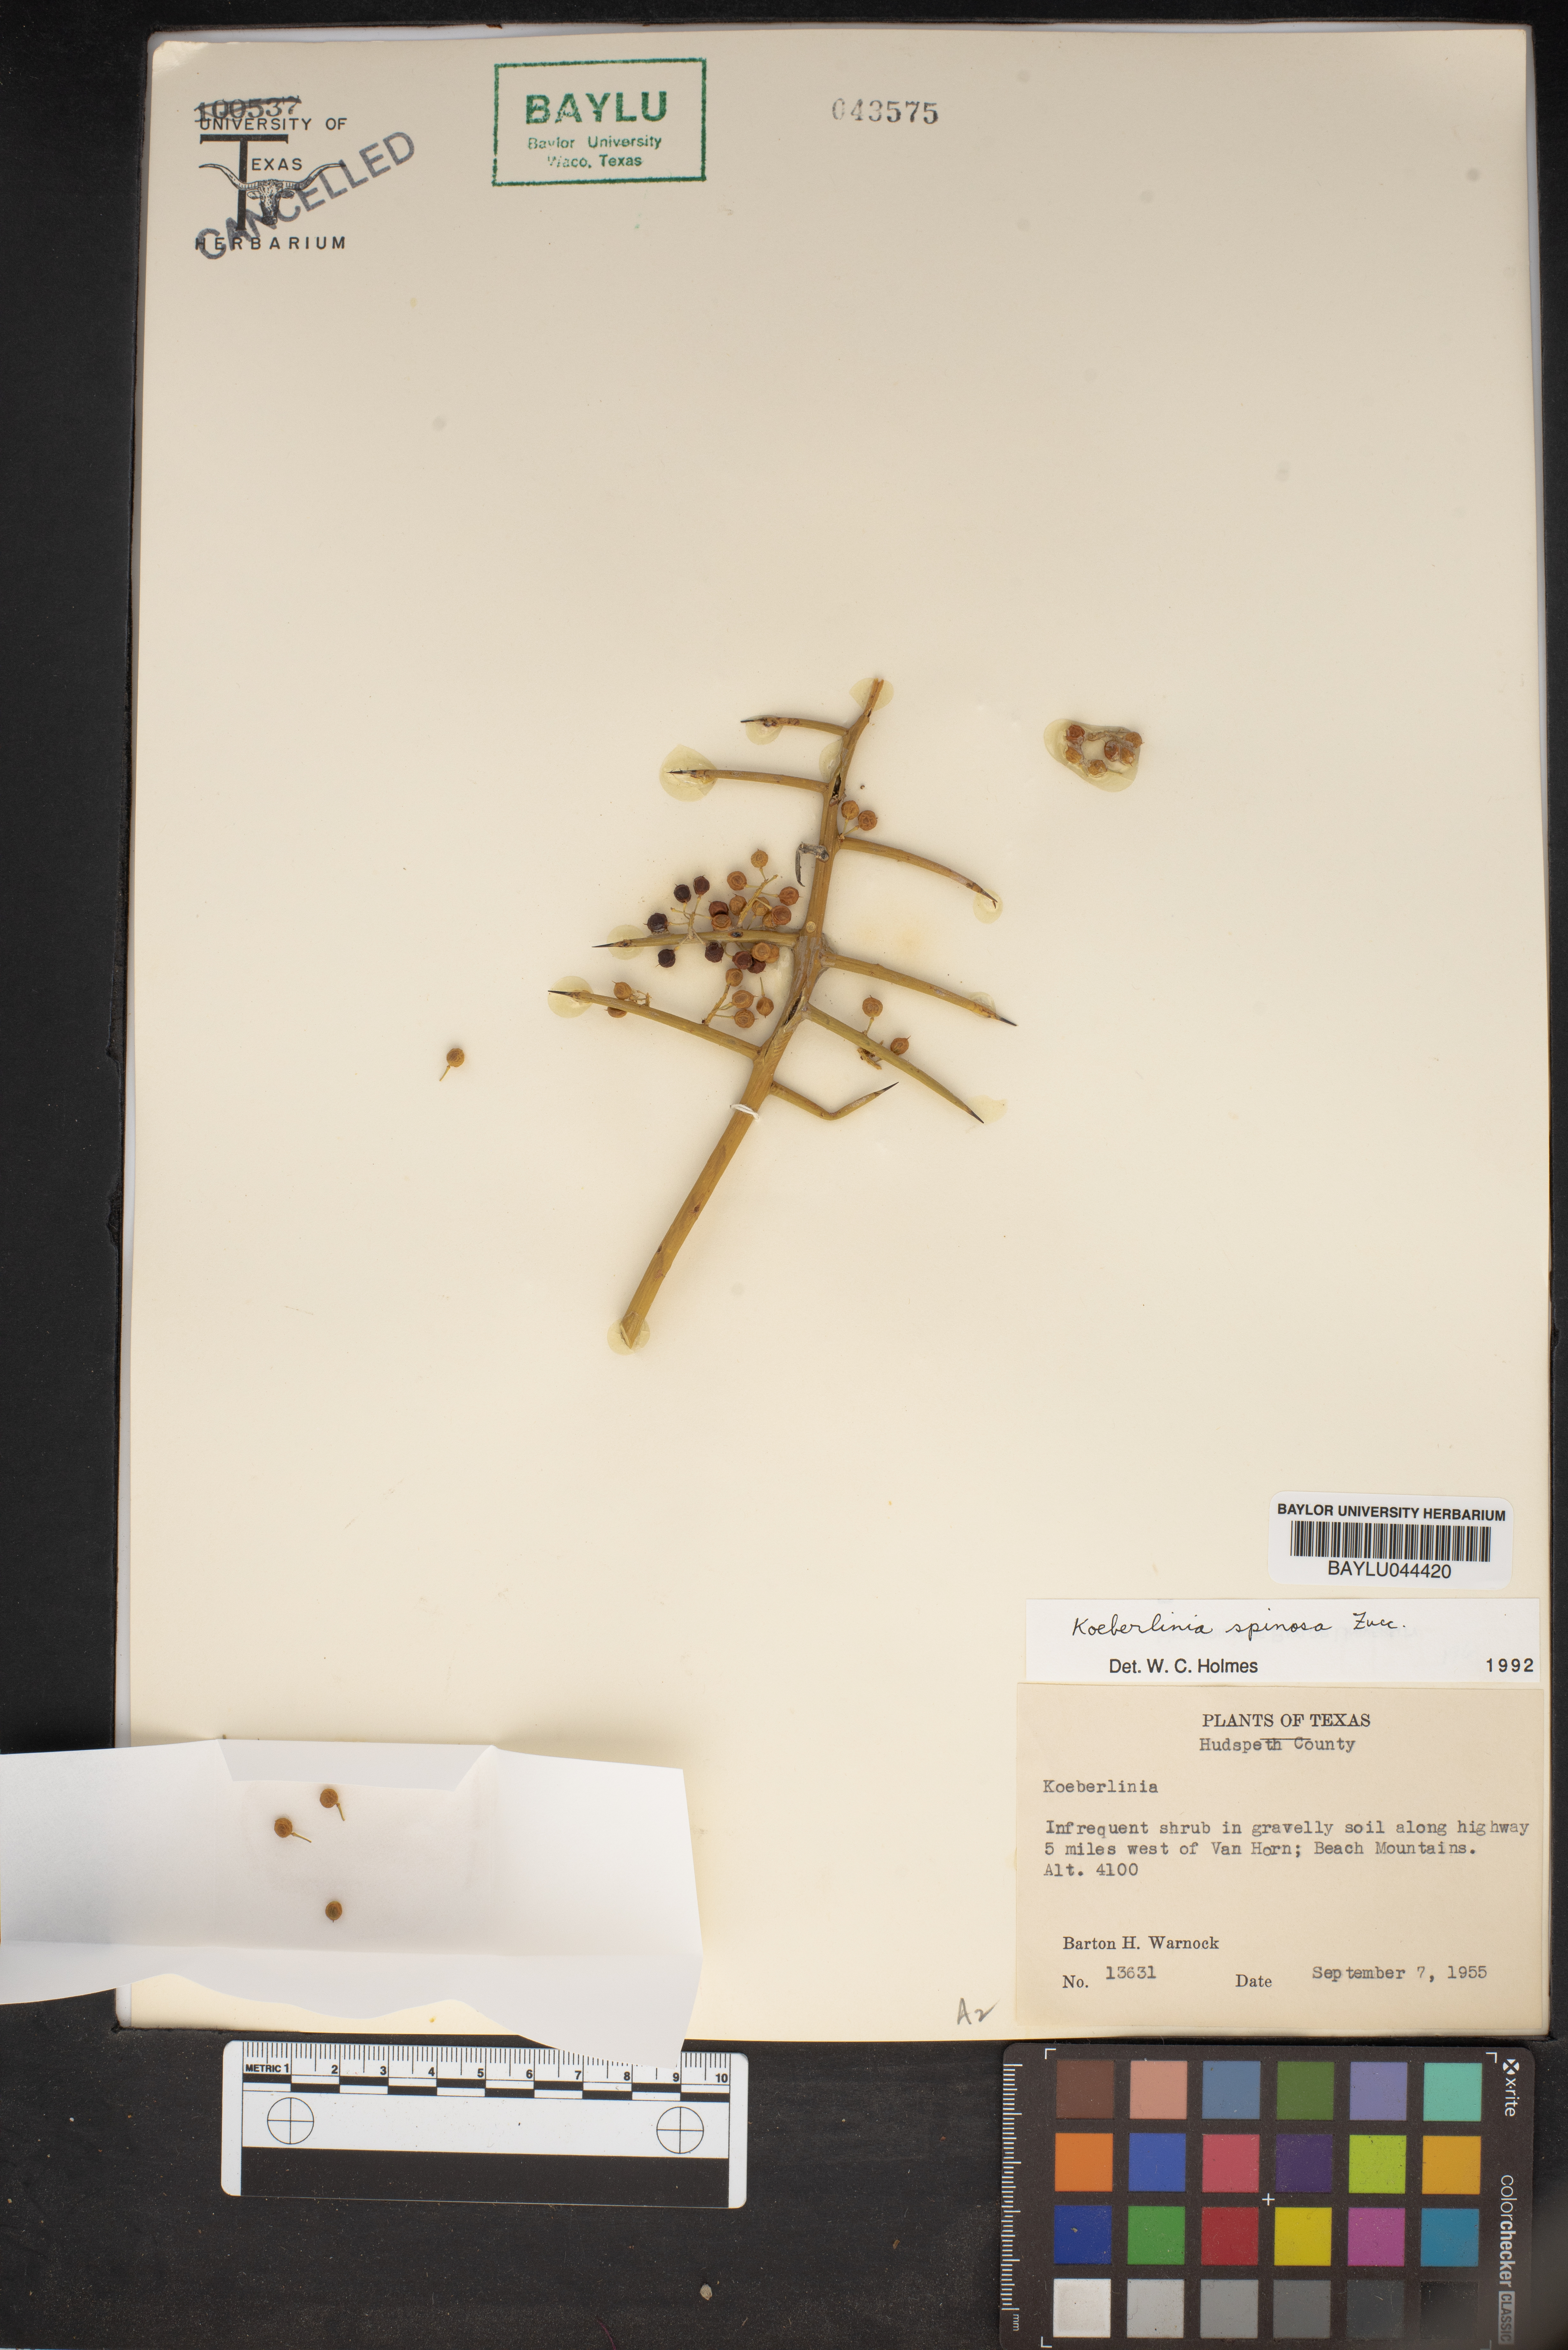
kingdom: Plantae
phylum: Tracheophyta
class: Magnoliopsida
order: Brassicales
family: Koeberliniaceae
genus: Koeberlinia
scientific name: Koeberlinia
